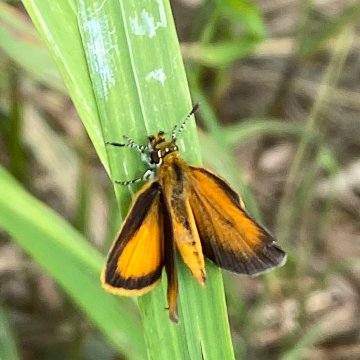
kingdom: Animalia
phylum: Arthropoda
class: Insecta
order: Lepidoptera
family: Hesperiidae
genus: Ancyloxypha
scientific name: Ancyloxypha numitor
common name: Least Skipper
